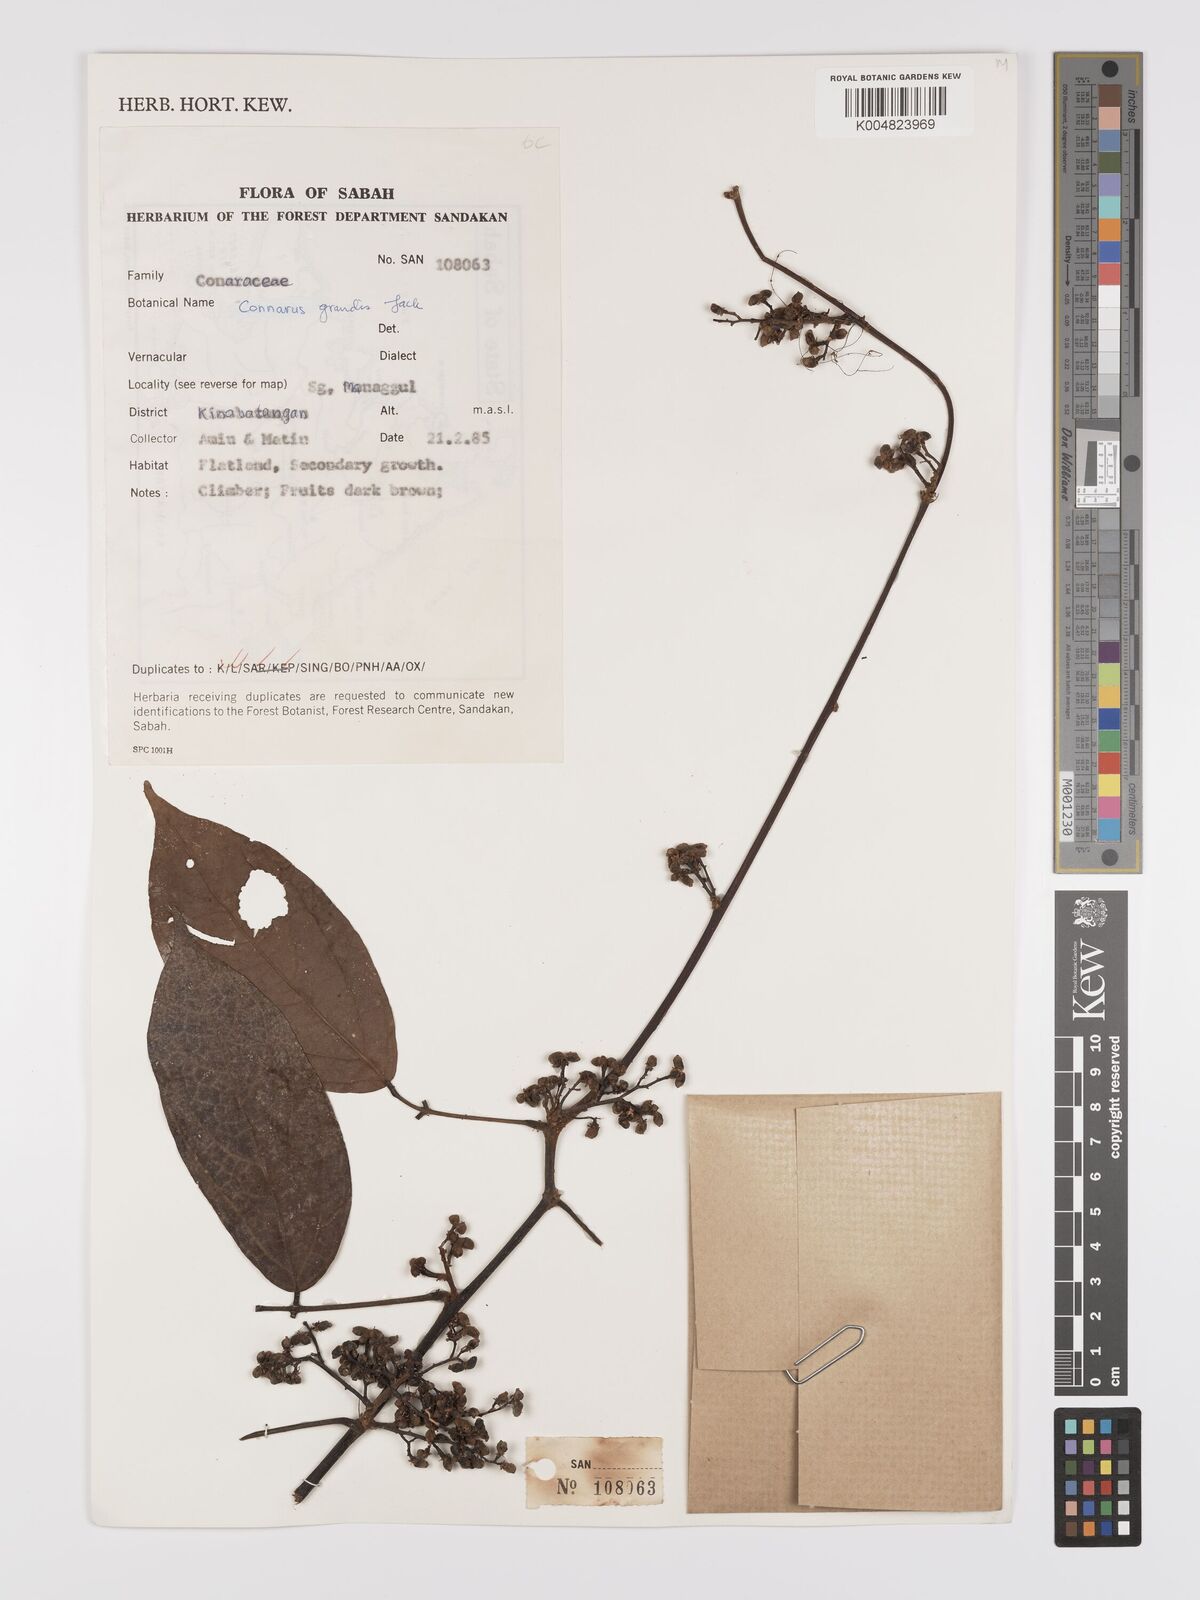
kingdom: Plantae
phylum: Tracheophyta
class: Magnoliopsida
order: Oxalidales
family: Connaraceae
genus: Connarus
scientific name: Connarus grandis
